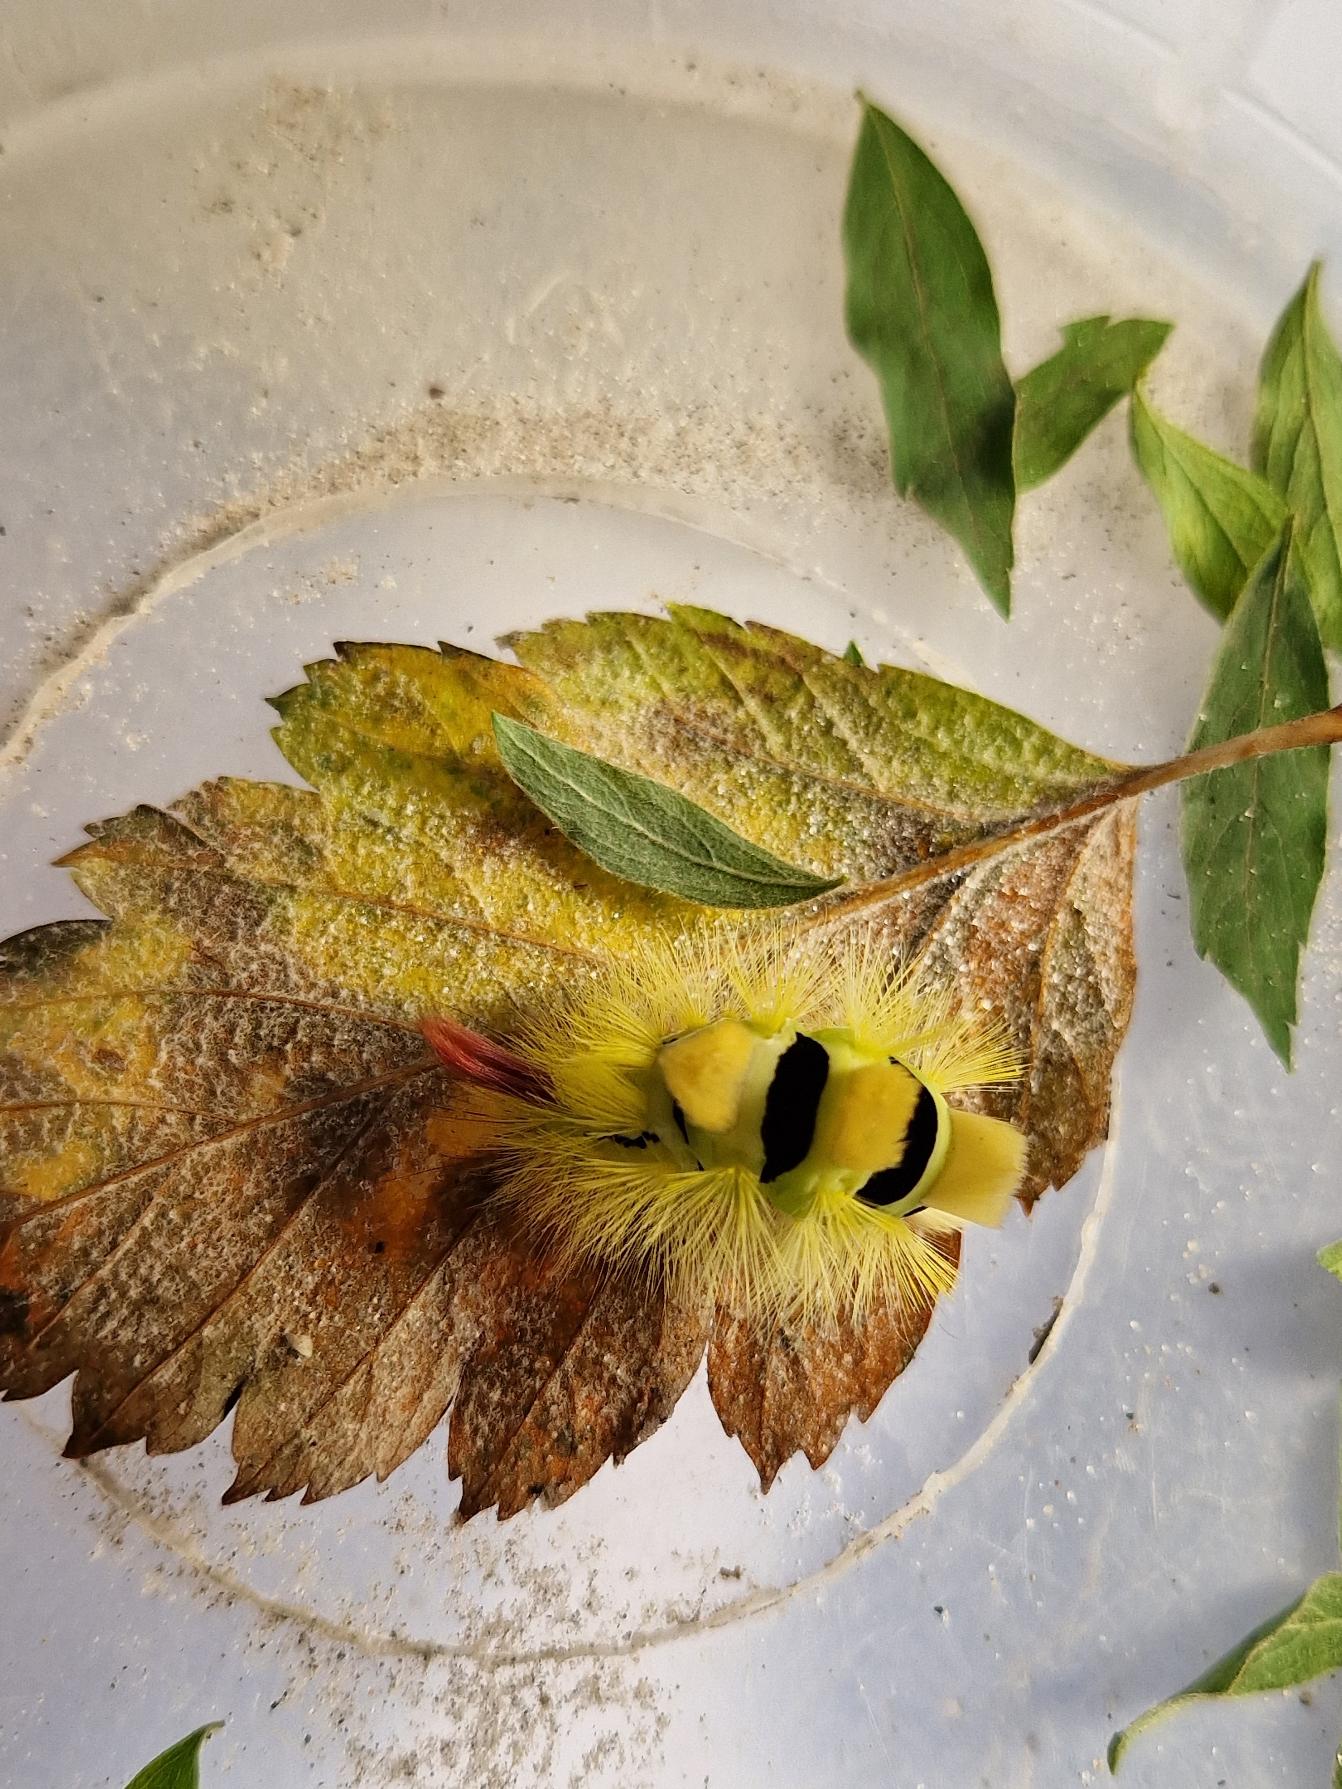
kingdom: Animalia
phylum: Arthropoda
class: Insecta
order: Lepidoptera
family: Erebidae
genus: Calliteara
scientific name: Calliteara pudibunda
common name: Bøgenonne
